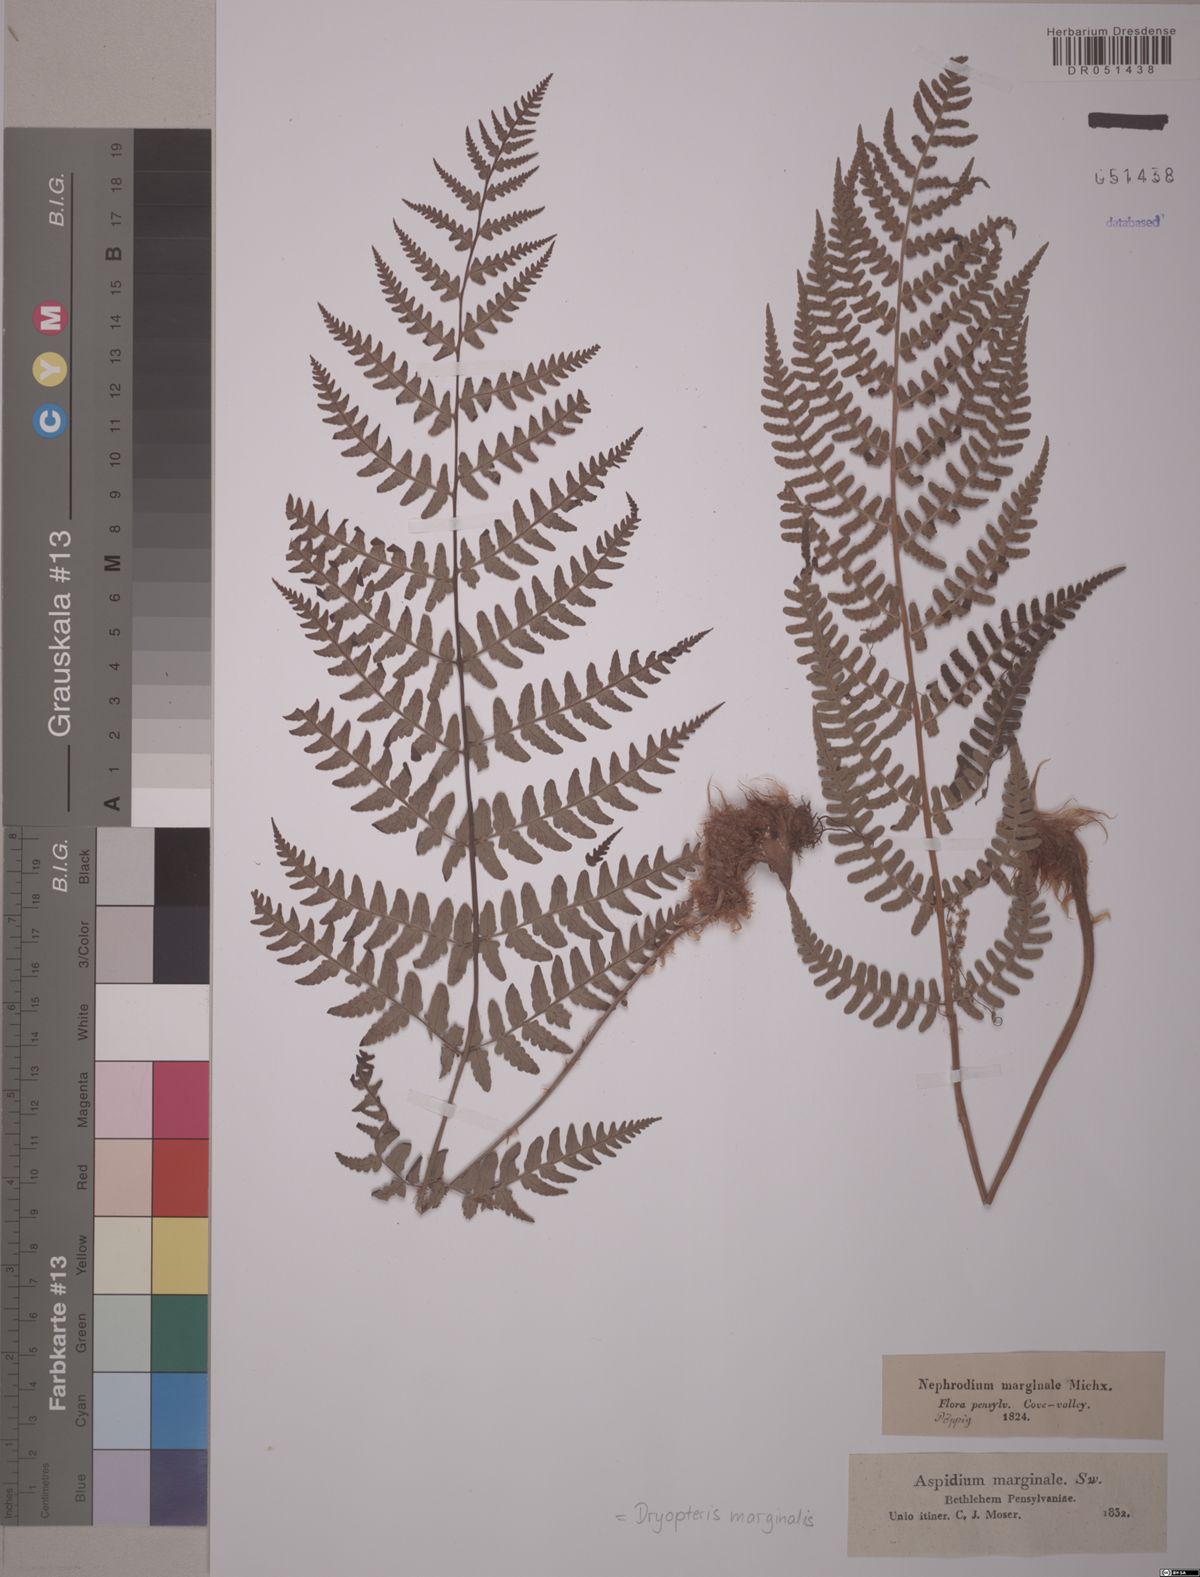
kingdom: Plantae
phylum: Tracheophyta
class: Polypodiopsida
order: Polypodiales
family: Dryopteridaceae
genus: Dryopteris
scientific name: Dryopteris marginalis
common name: Marginal wood fern
